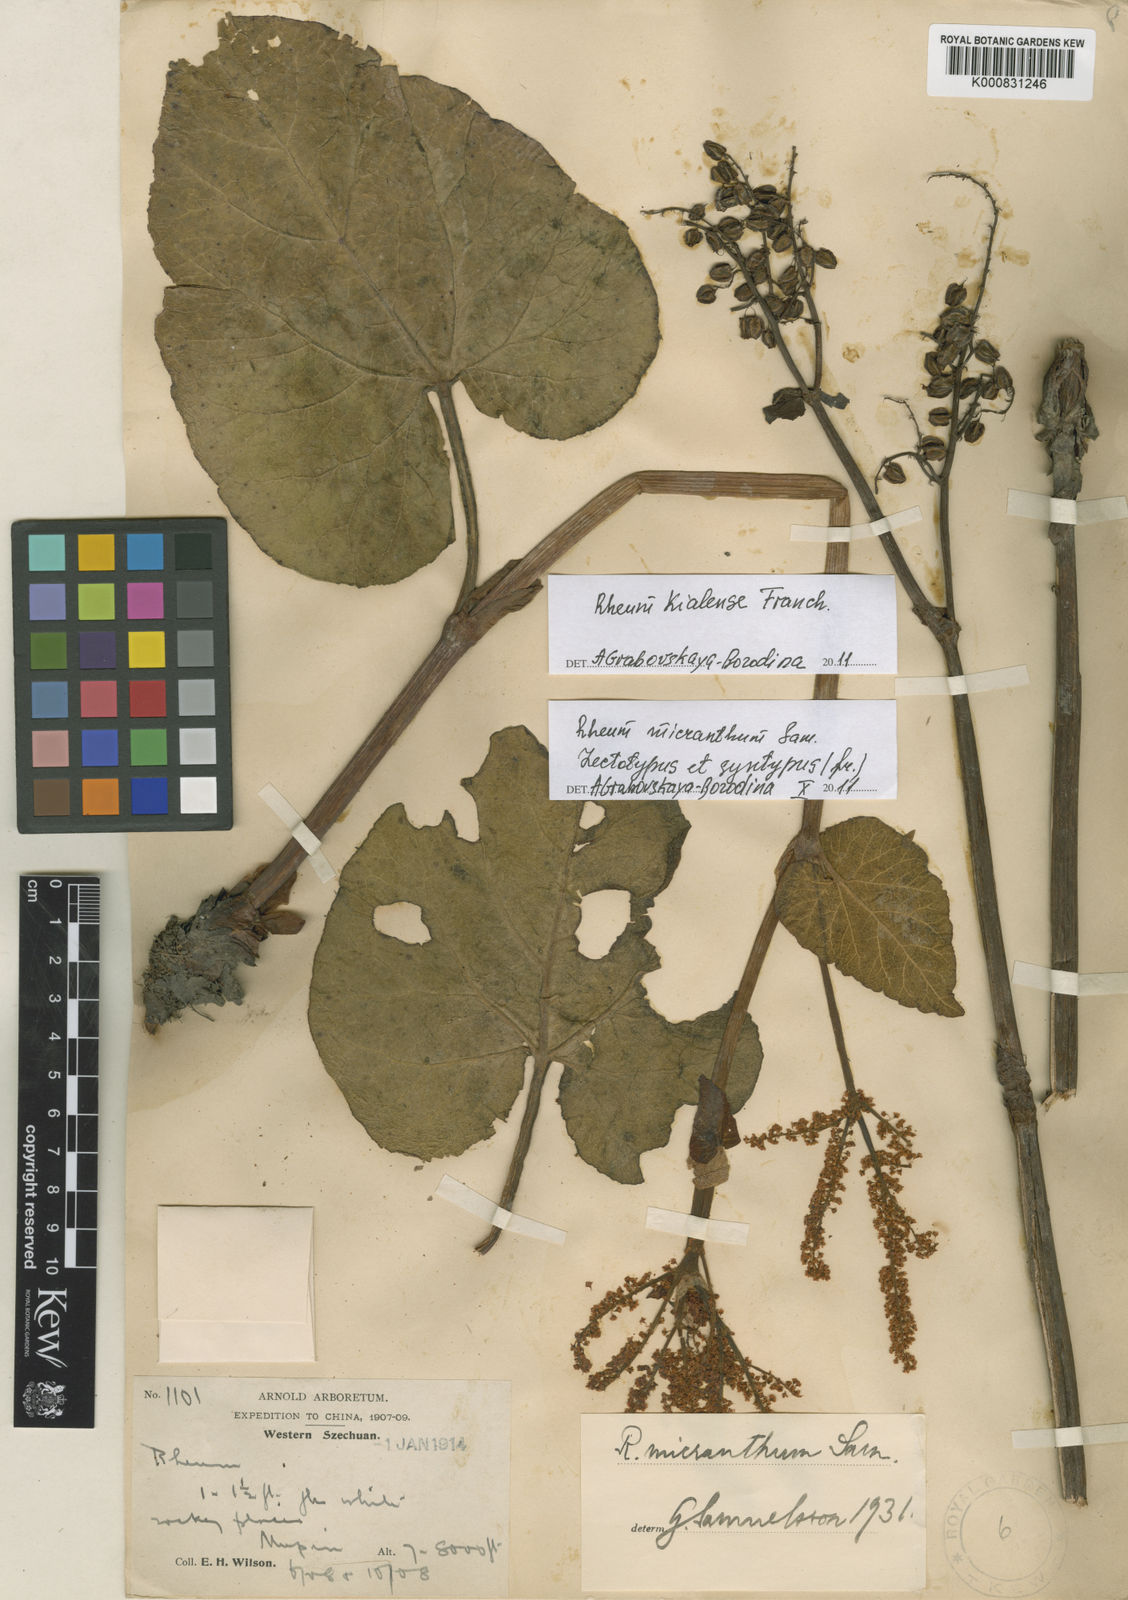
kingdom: Plantae
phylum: Tracheophyta
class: Magnoliopsida
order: Caryophyllales
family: Polygonaceae
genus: Rheum
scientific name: Rheum kialense
